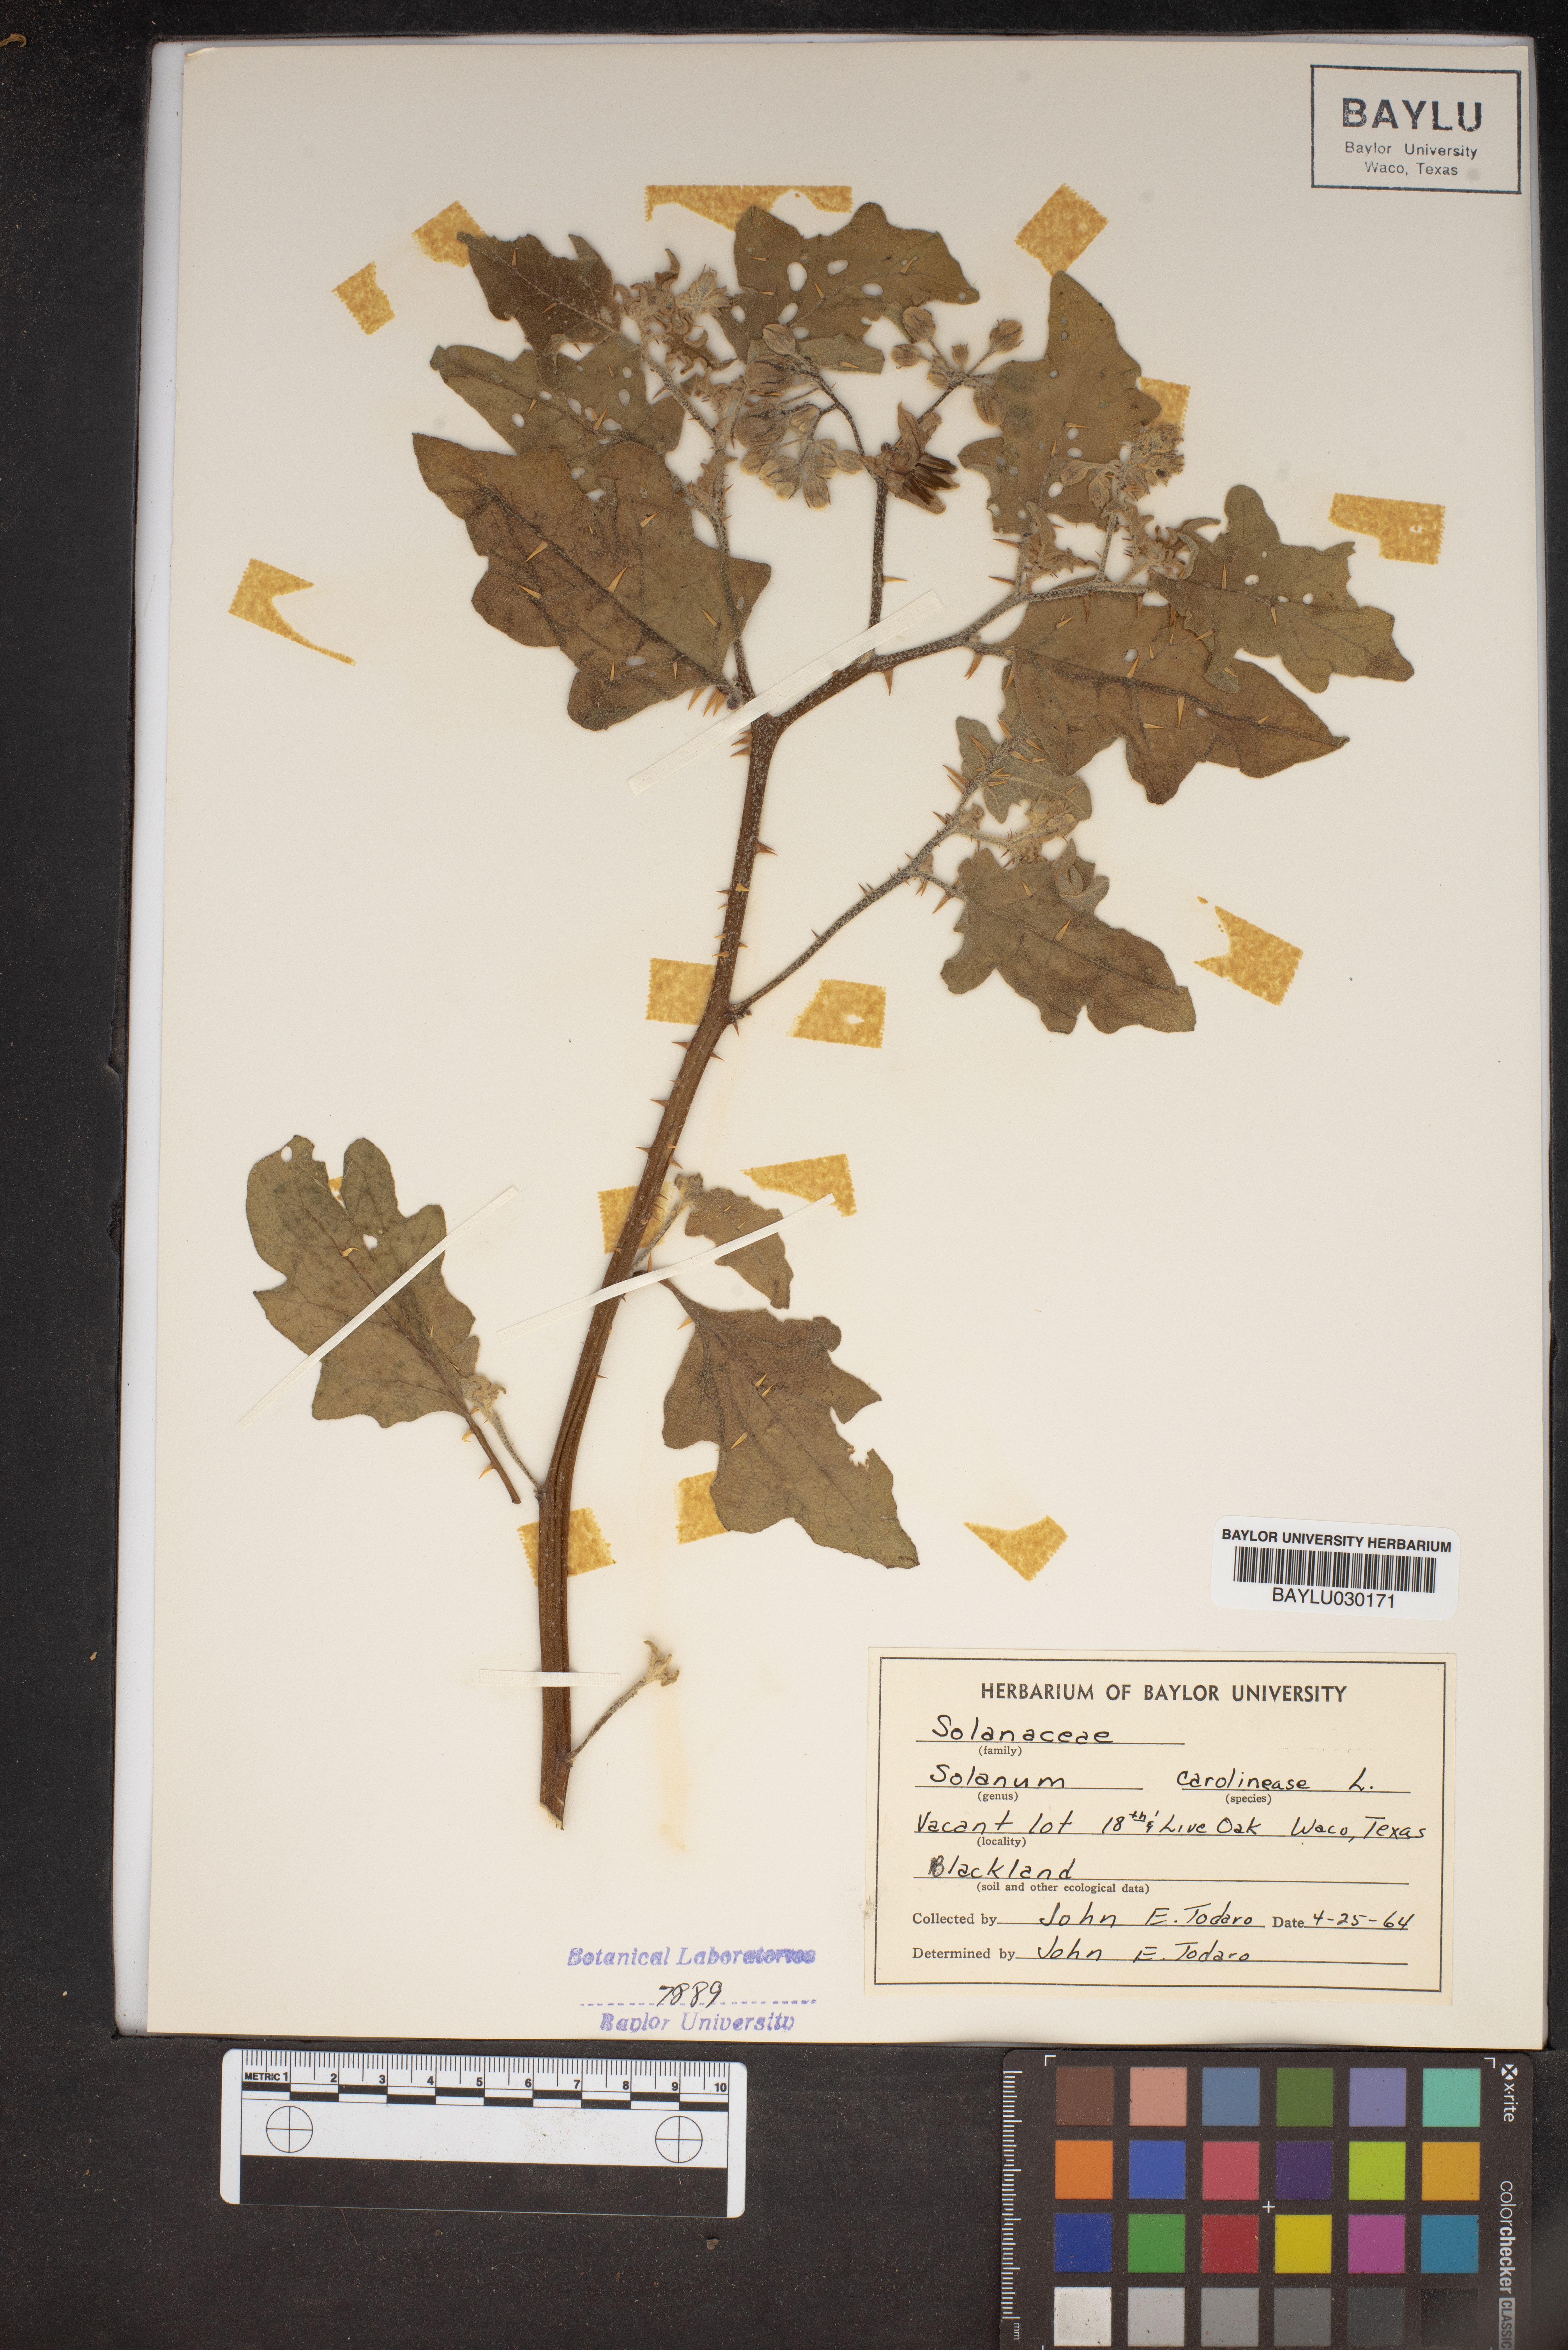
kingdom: Plantae
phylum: Tracheophyta
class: Magnoliopsida
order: Solanales
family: Solanaceae
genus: Solanum
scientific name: Solanum carolinense
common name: Horse-nettle
